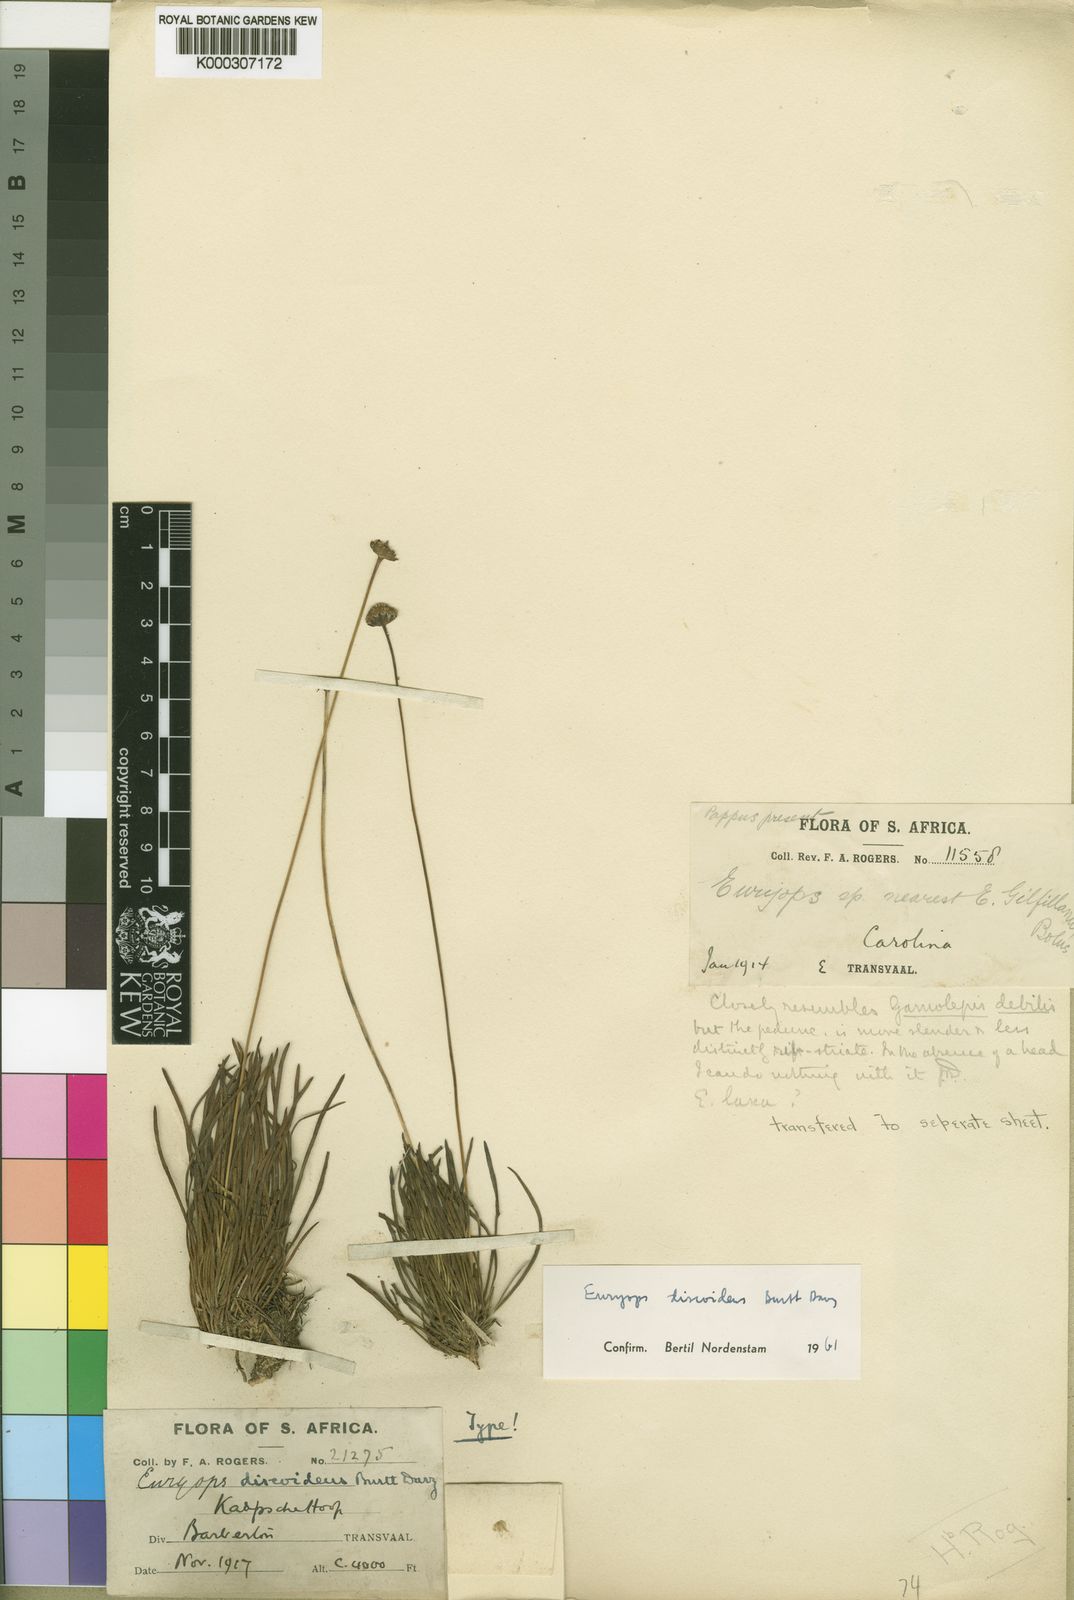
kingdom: Plantae
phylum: Tracheophyta
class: Magnoliopsida
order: Asterales
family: Asteraceae
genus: Euryops
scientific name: Euryops discoideus
